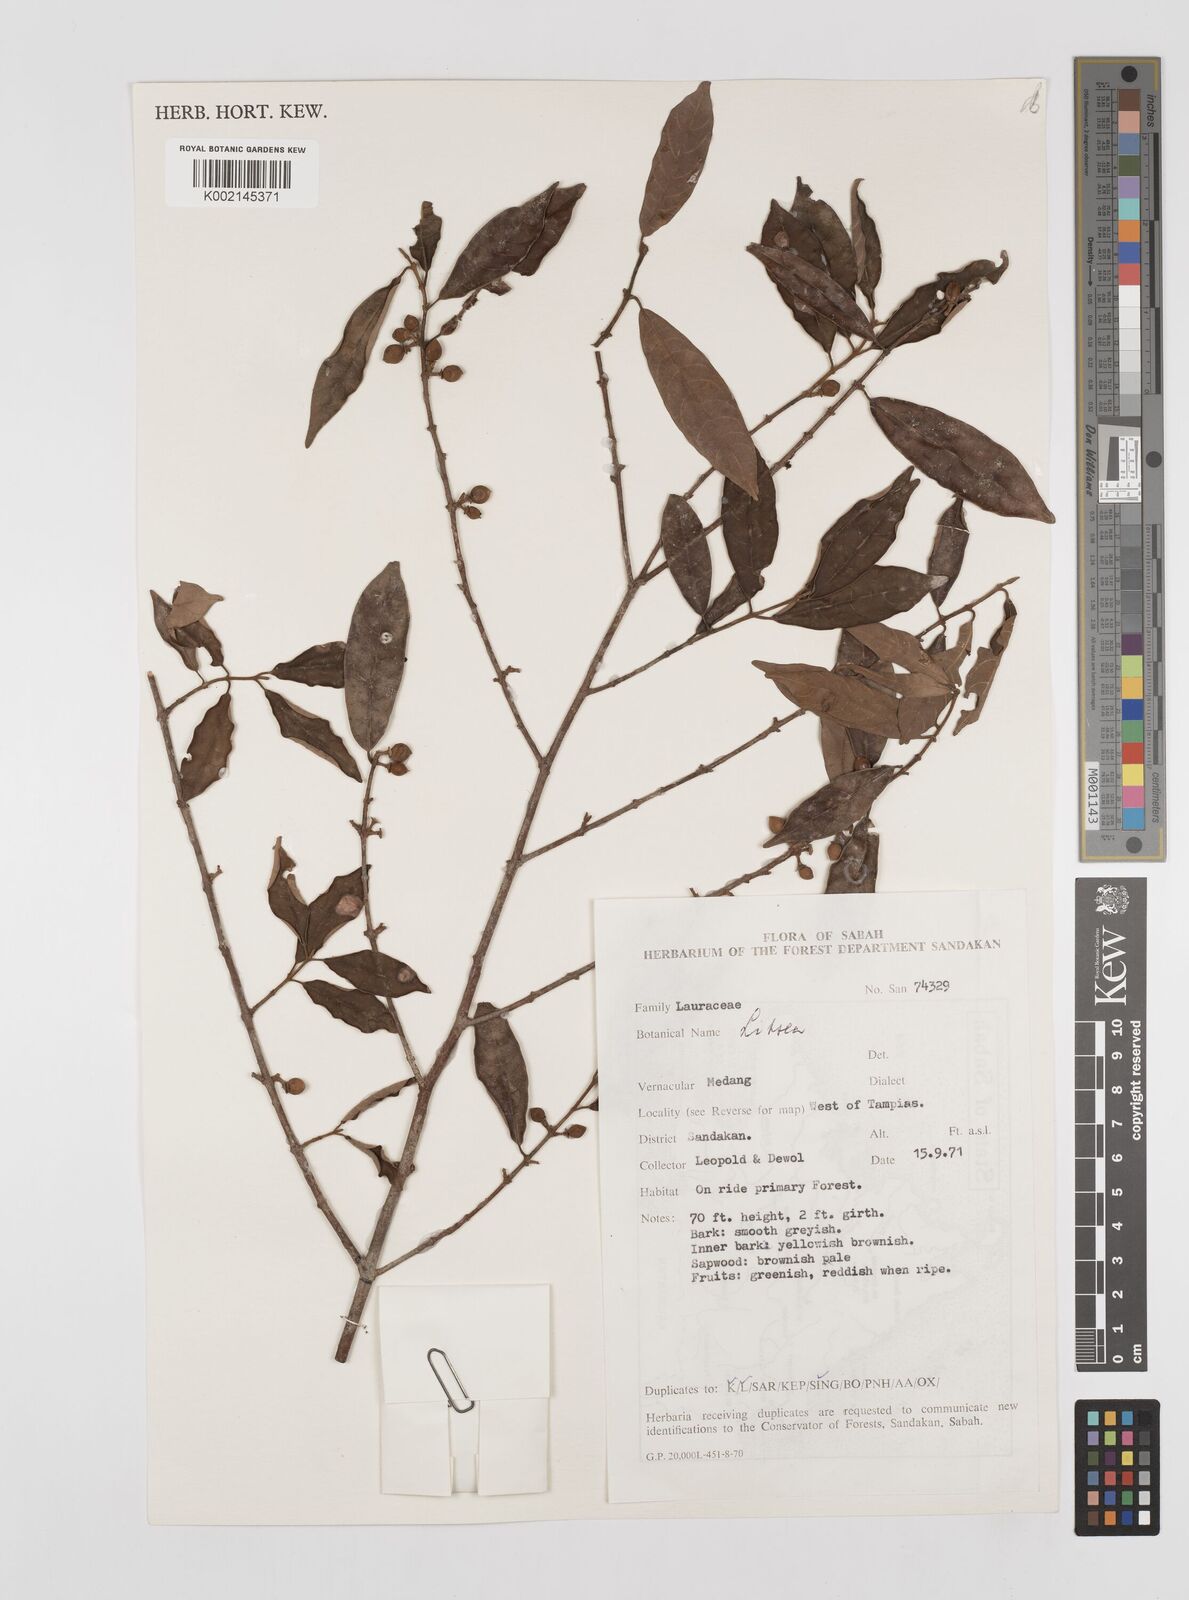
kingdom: Plantae
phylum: Tracheophyta
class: Magnoliopsida
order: Laurales
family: Lauraceae
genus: Litsea
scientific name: Litsea
